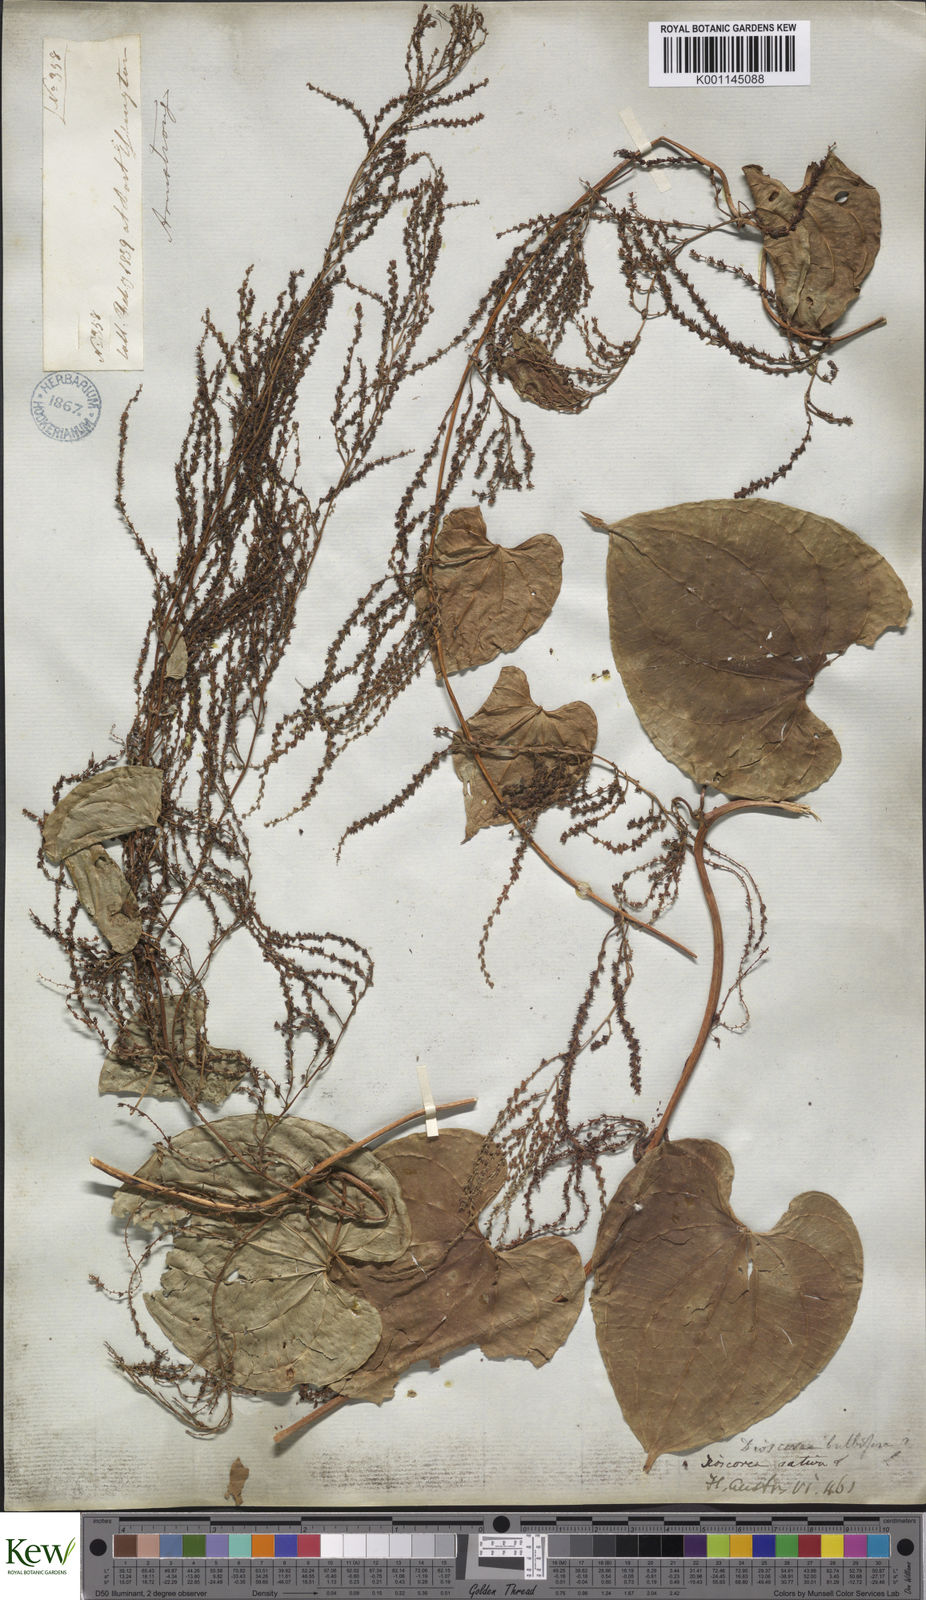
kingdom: Plantae
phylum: Tracheophyta
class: Liliopsida
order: Dioscoreales
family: Dioscoreaceae
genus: Dioscorea
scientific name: Dioscorea bulbifera
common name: Air yam
